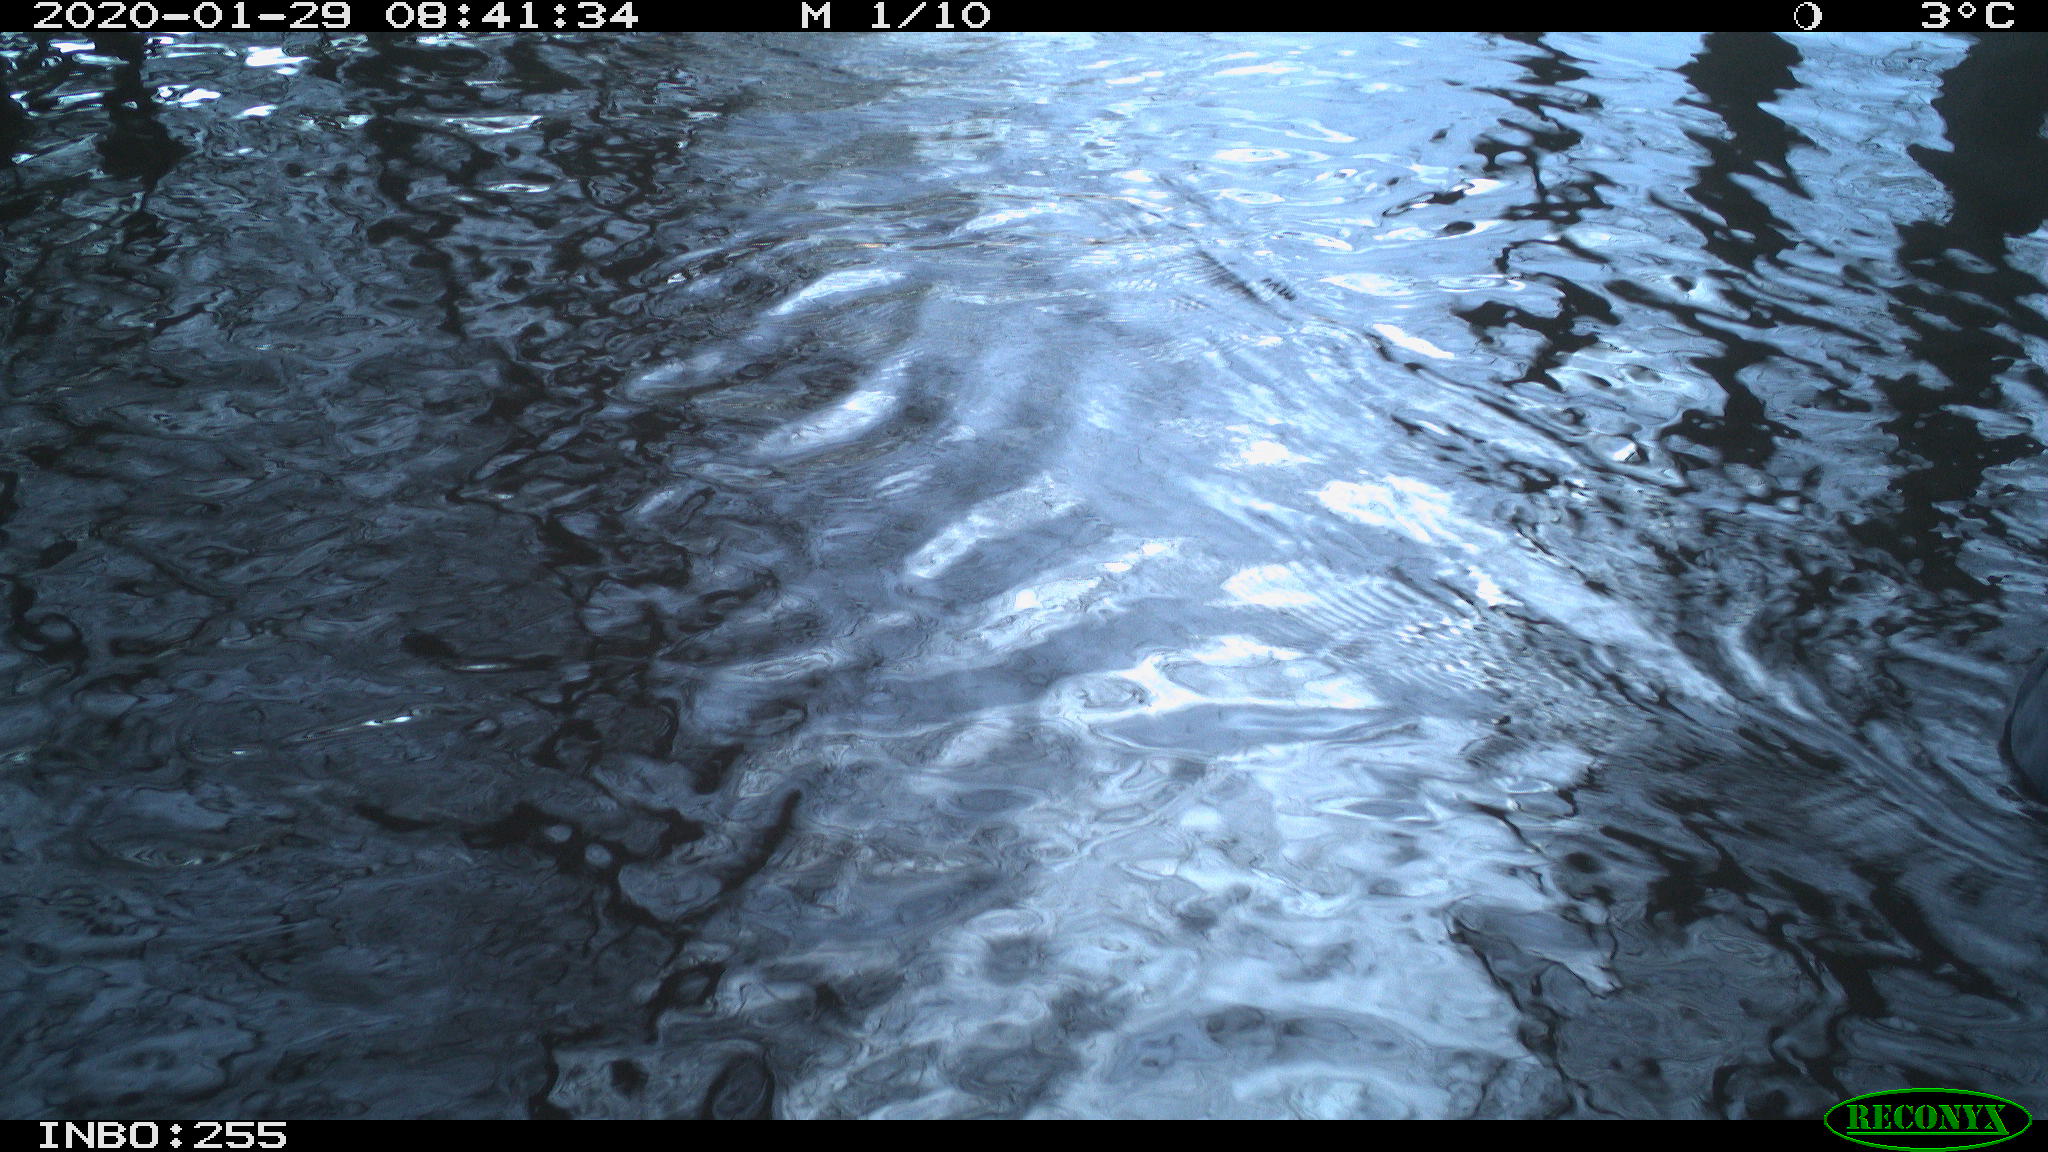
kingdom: Animalia
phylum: Chordata
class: Aves
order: Anseriformes
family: Anatidae
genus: Anas
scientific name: Anas platyrhynchos
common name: Mallard
